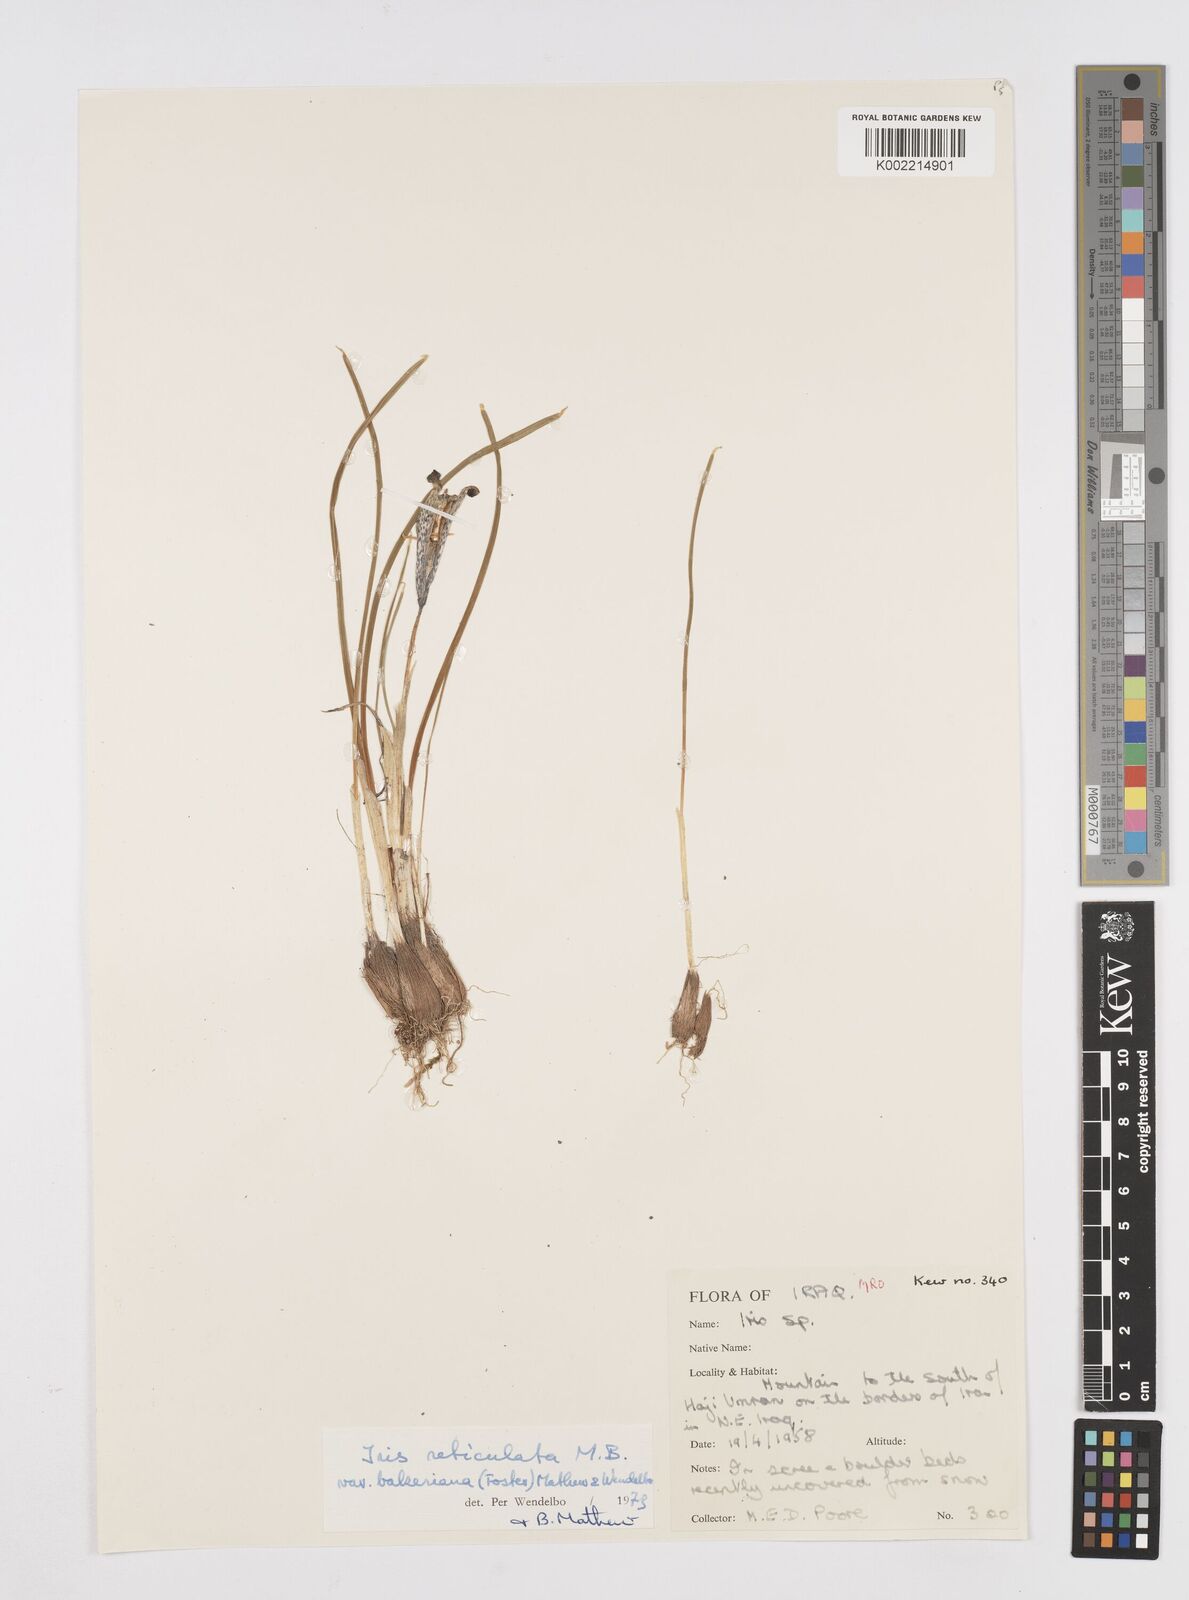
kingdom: Plantae
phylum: Tracheophyta
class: Liliopsida
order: Asparagales
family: Iridaceae
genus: Iris
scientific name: Iris reticulata
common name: Netted iris
